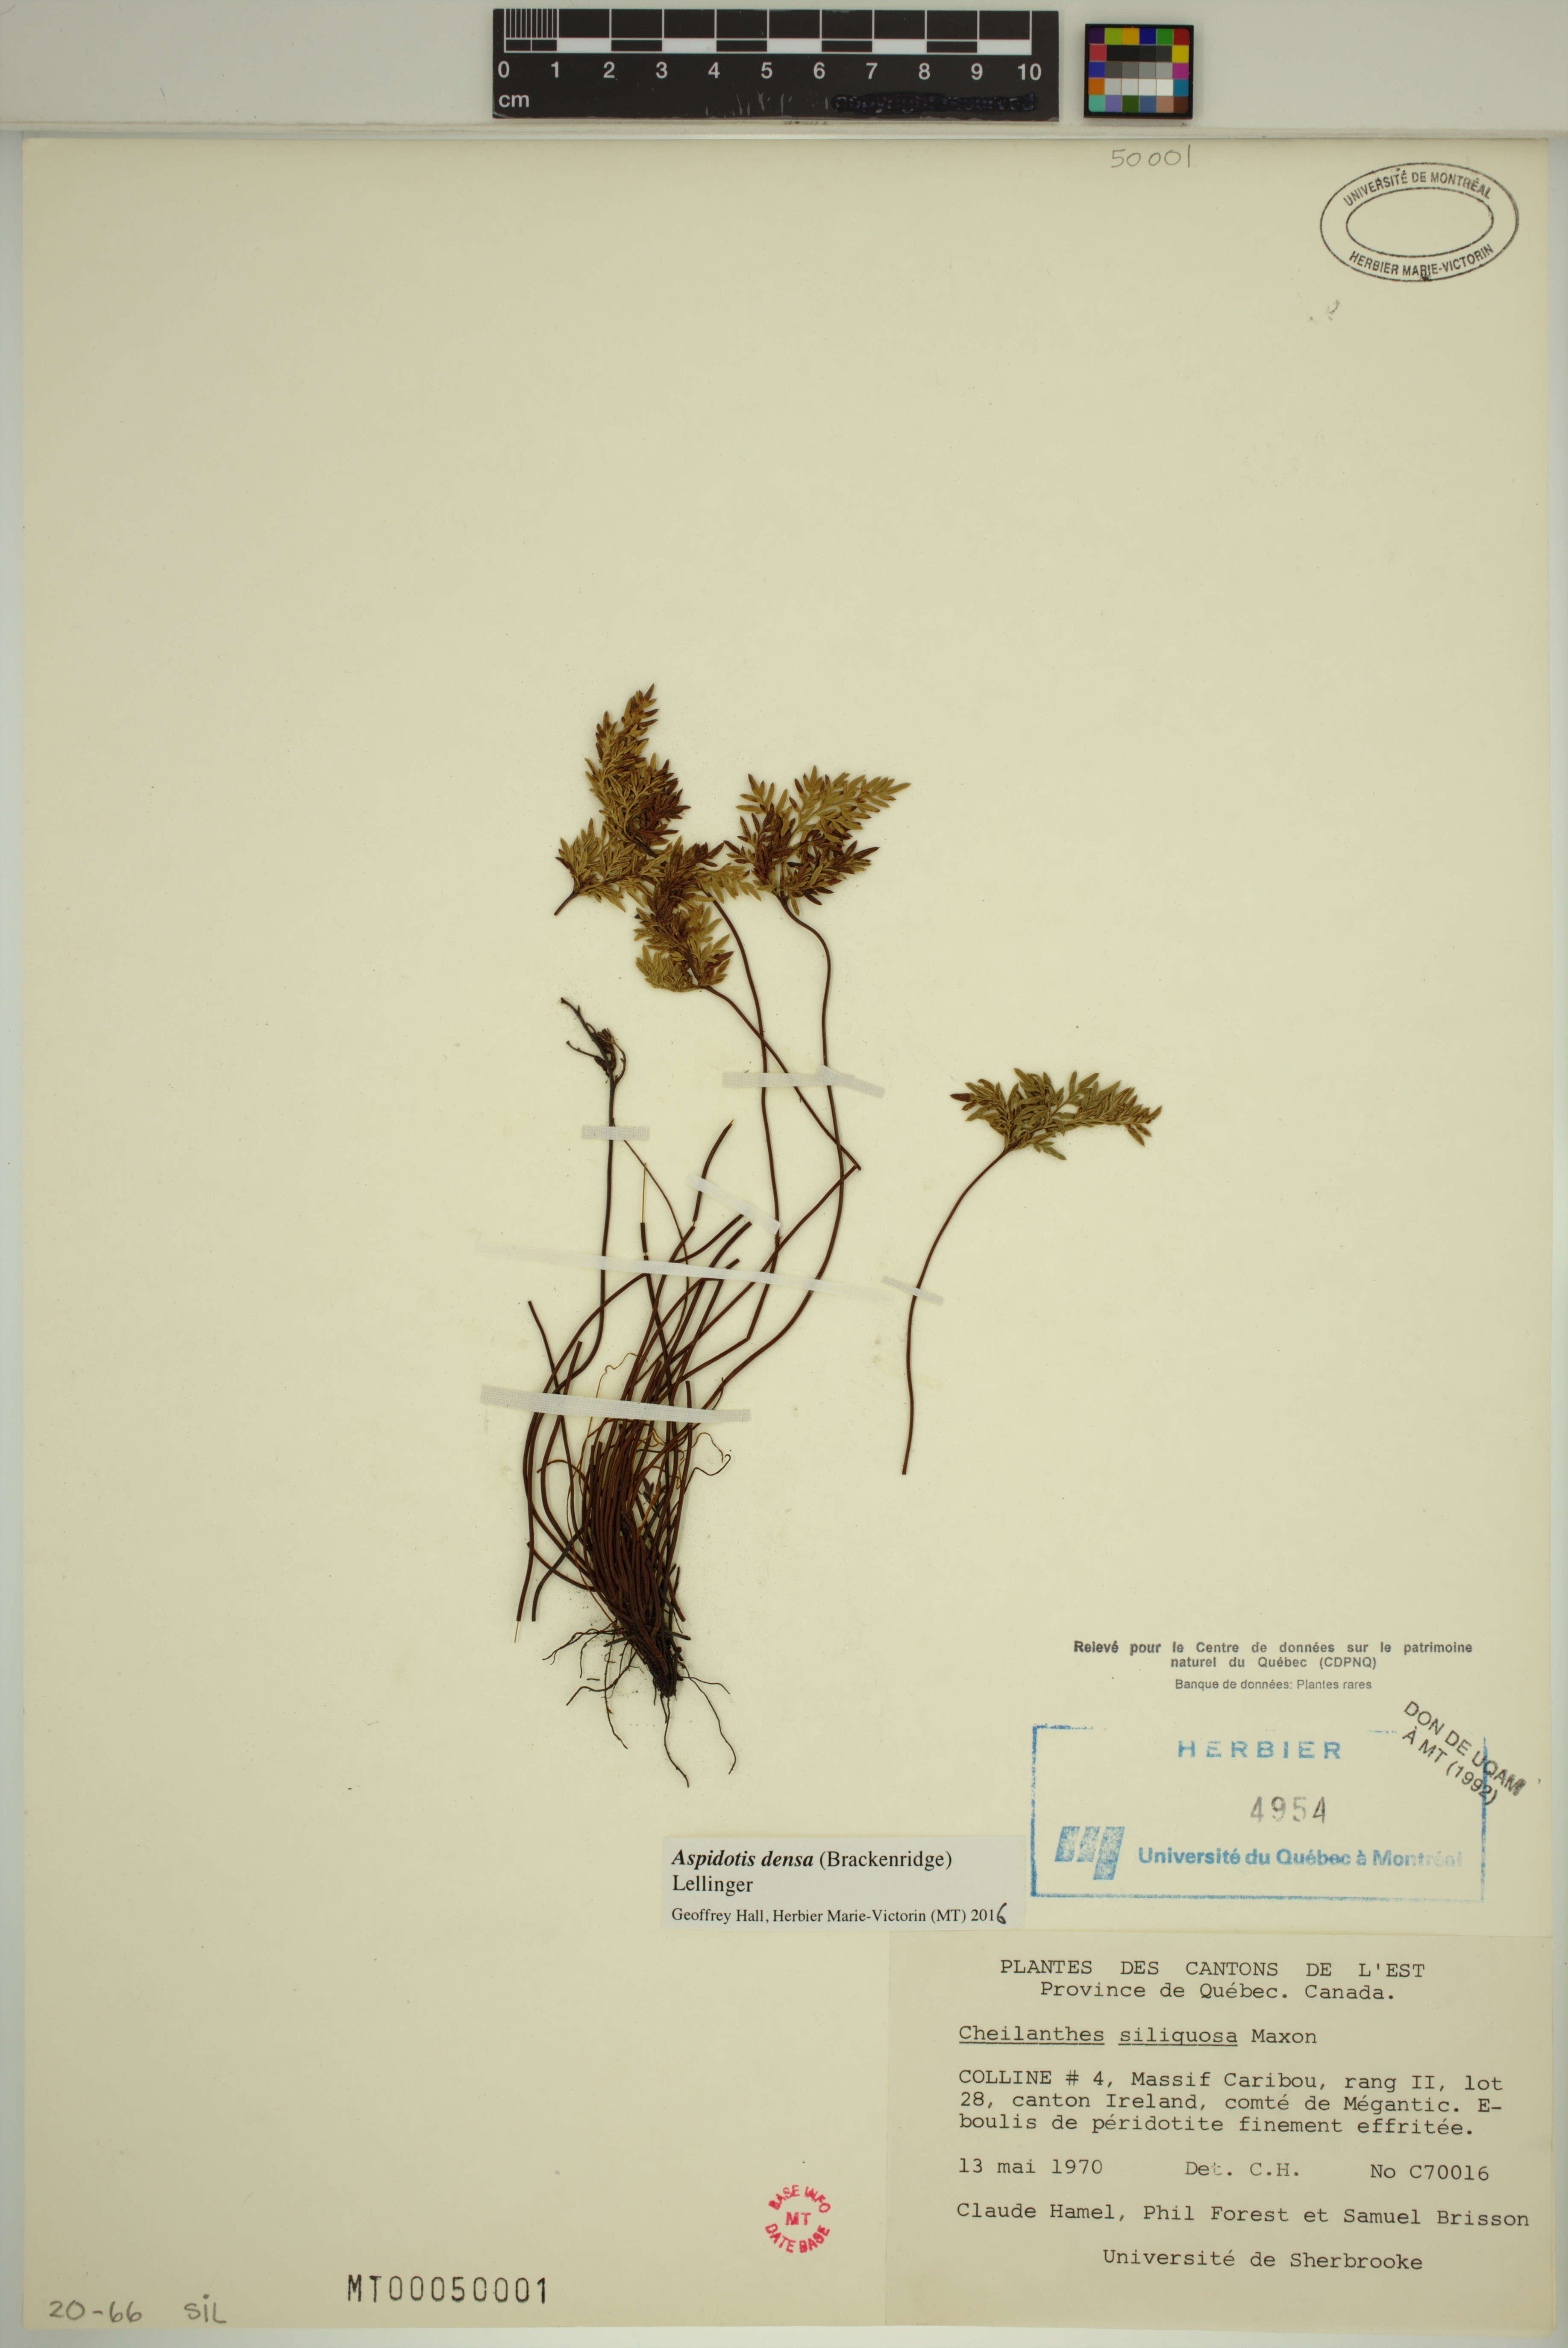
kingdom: Plantae
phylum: Tracheophyta
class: Polypodiopsida
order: Polypodiales
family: Pteridaceae
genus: Aspidotis
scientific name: Aspidotis densa
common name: Indian's dream
